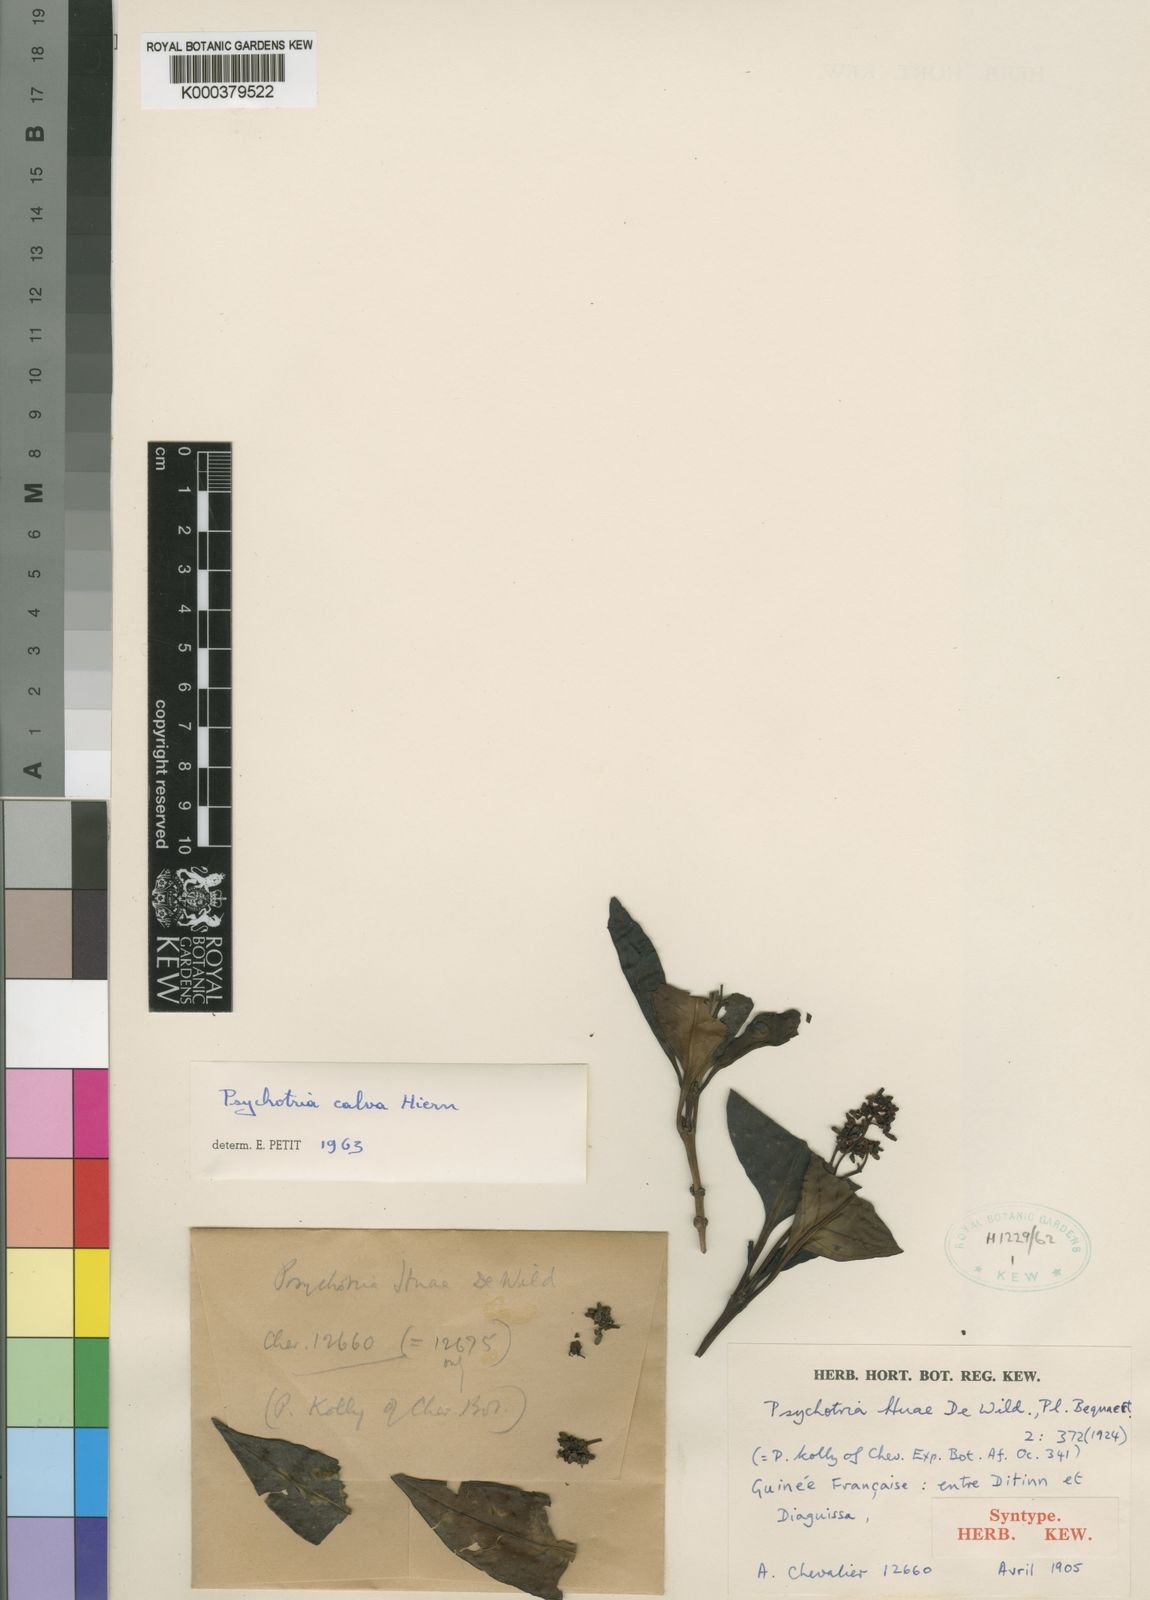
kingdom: Plantae
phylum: Tracheophyta
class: Magnoliopsida
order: Gentianales
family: Rubiaceae
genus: Psychotria
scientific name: Psychotria calva
